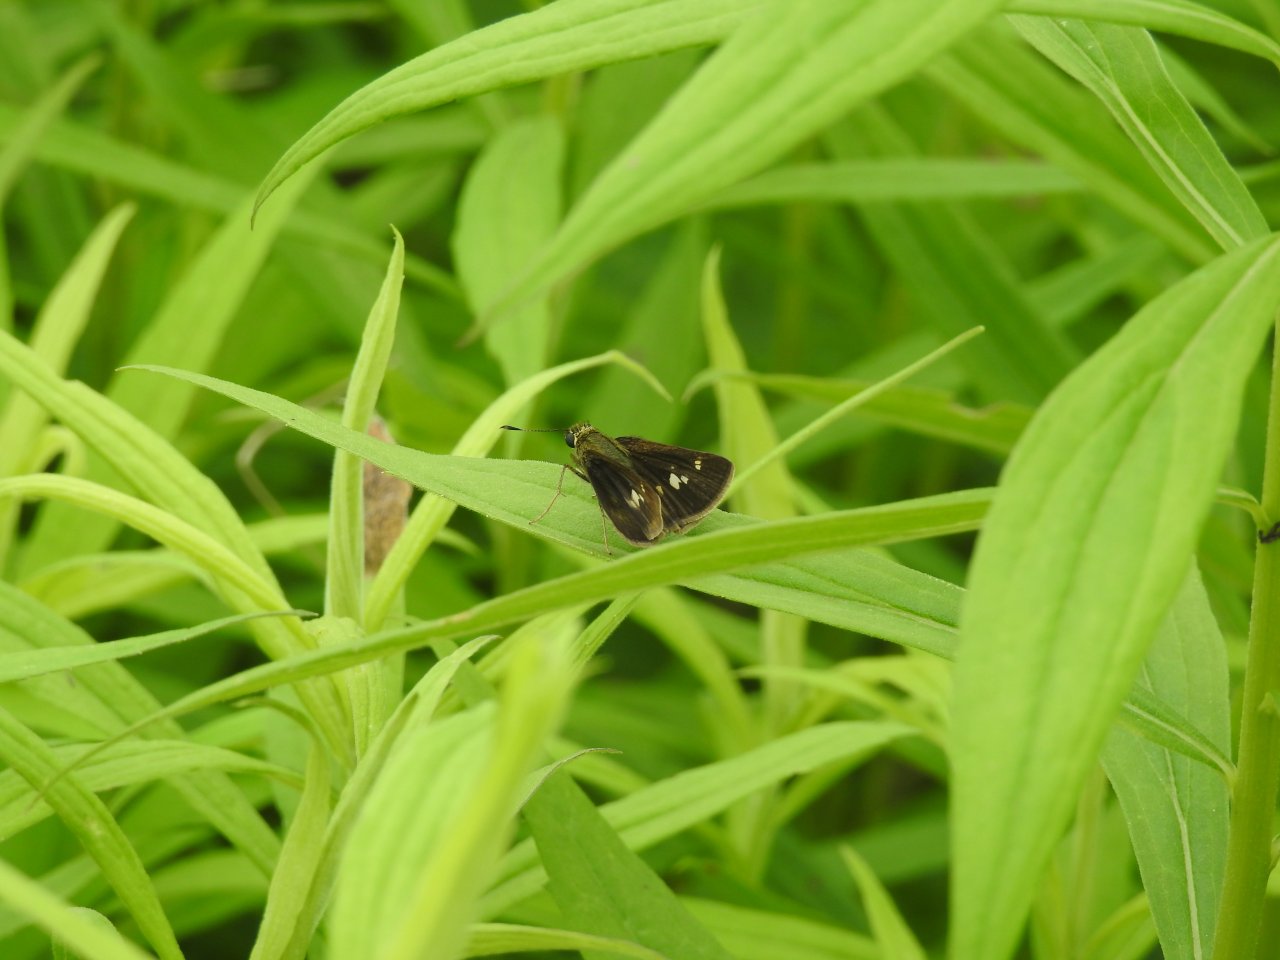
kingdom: Animalia
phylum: Arthropoda
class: Insecta
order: Lepidoptera
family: Hesperiidae
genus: Vernia
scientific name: Vernia verna
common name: Little Glassywing
